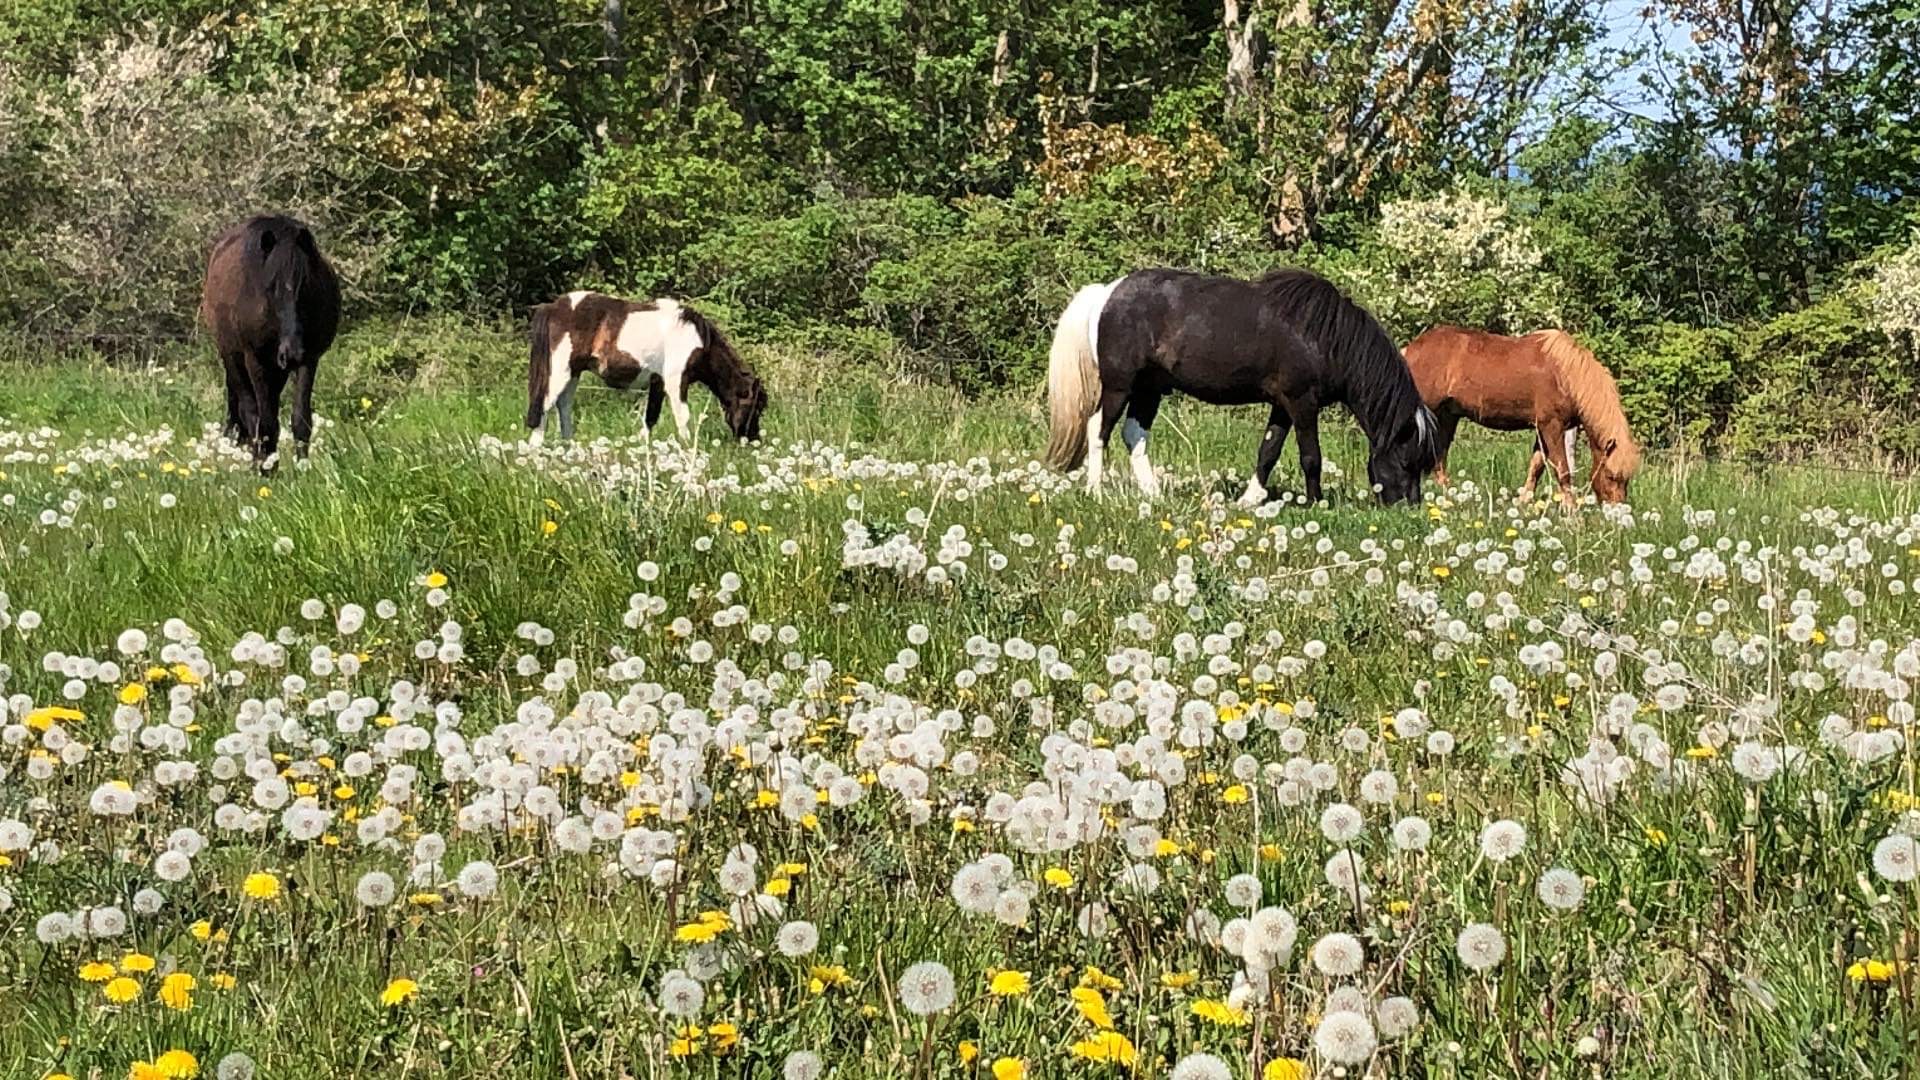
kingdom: Plantae
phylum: Tracheophyta
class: Magnoliopsida
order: Asterales
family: Asteraceae
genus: Taraxacum
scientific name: Taraxacum
